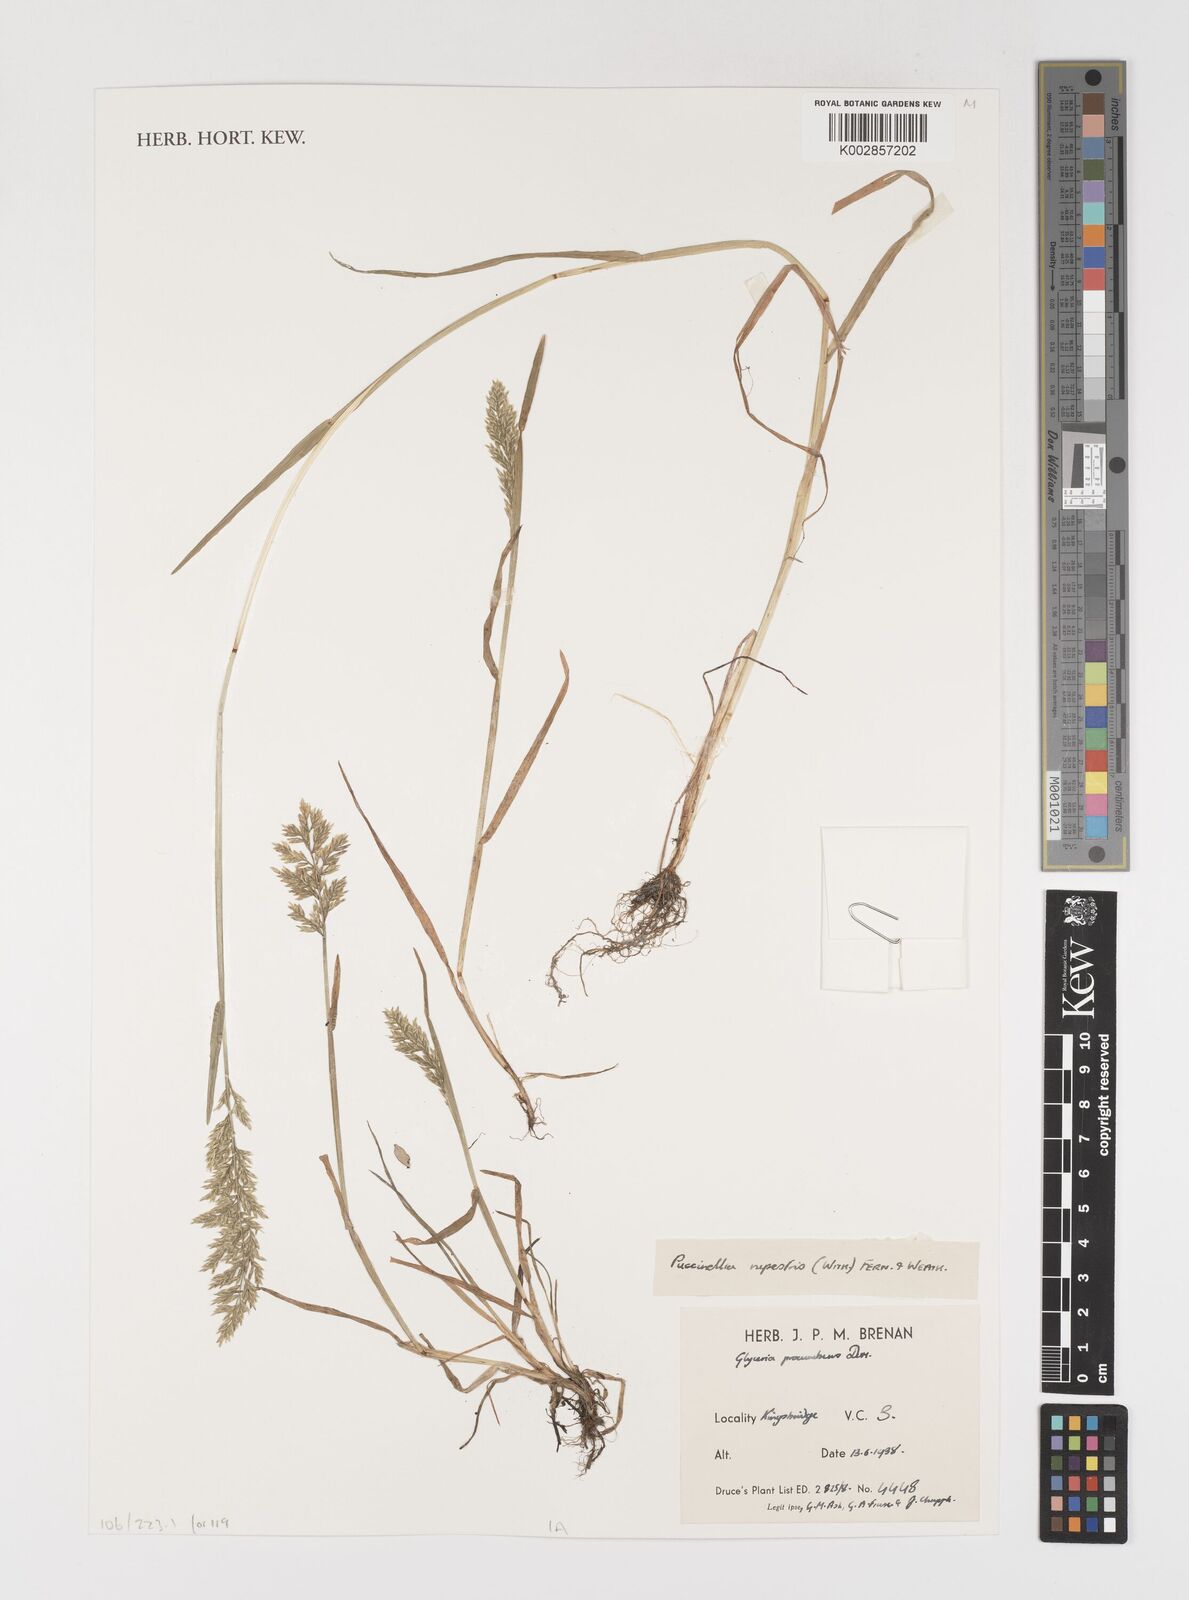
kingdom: Plantae
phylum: Tracheophyta
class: Liliopsida
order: Poales
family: Poaceae
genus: Puccinellia
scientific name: Puccinellia rupestris
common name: Stiff saltmarsh-grass
